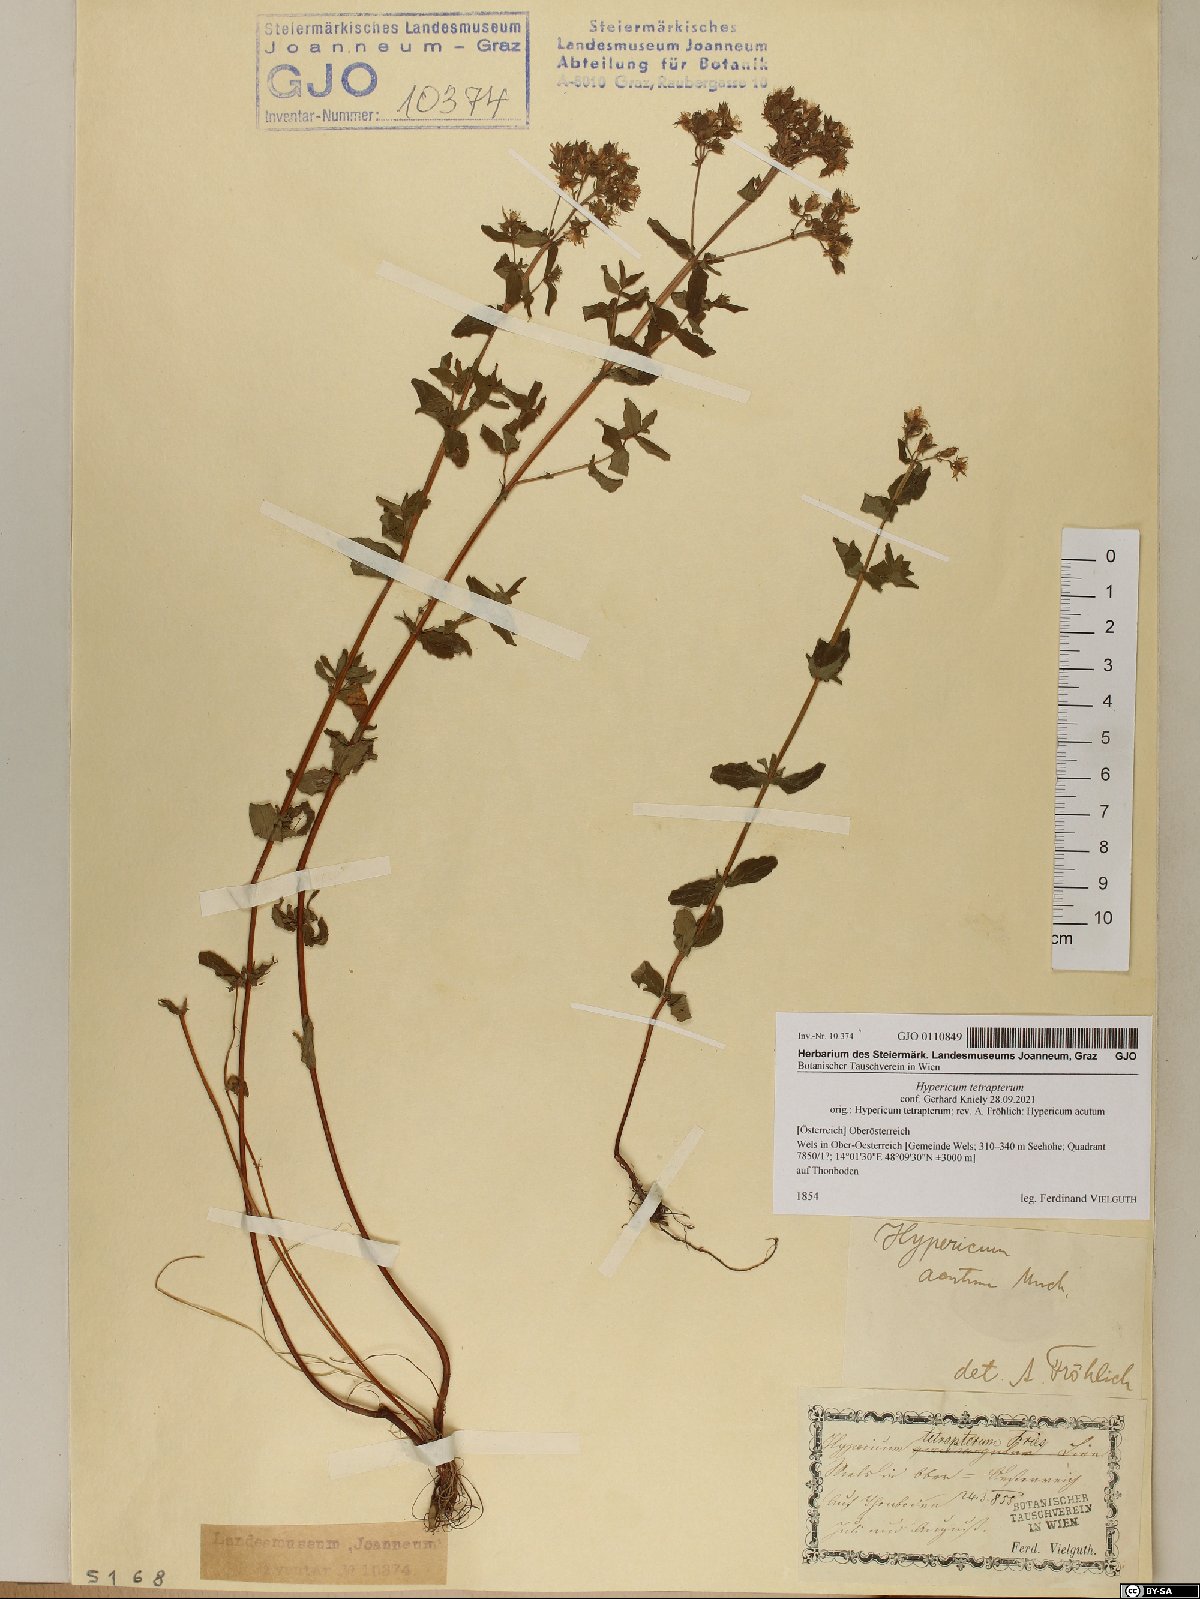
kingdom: Plantae
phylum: Tracheophyta
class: Magnoliopsida
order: Malpighiales
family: Hypericaceae
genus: Hypericum
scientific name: Hypericum tetrapterum
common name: Square-stalked st. john's-wort
